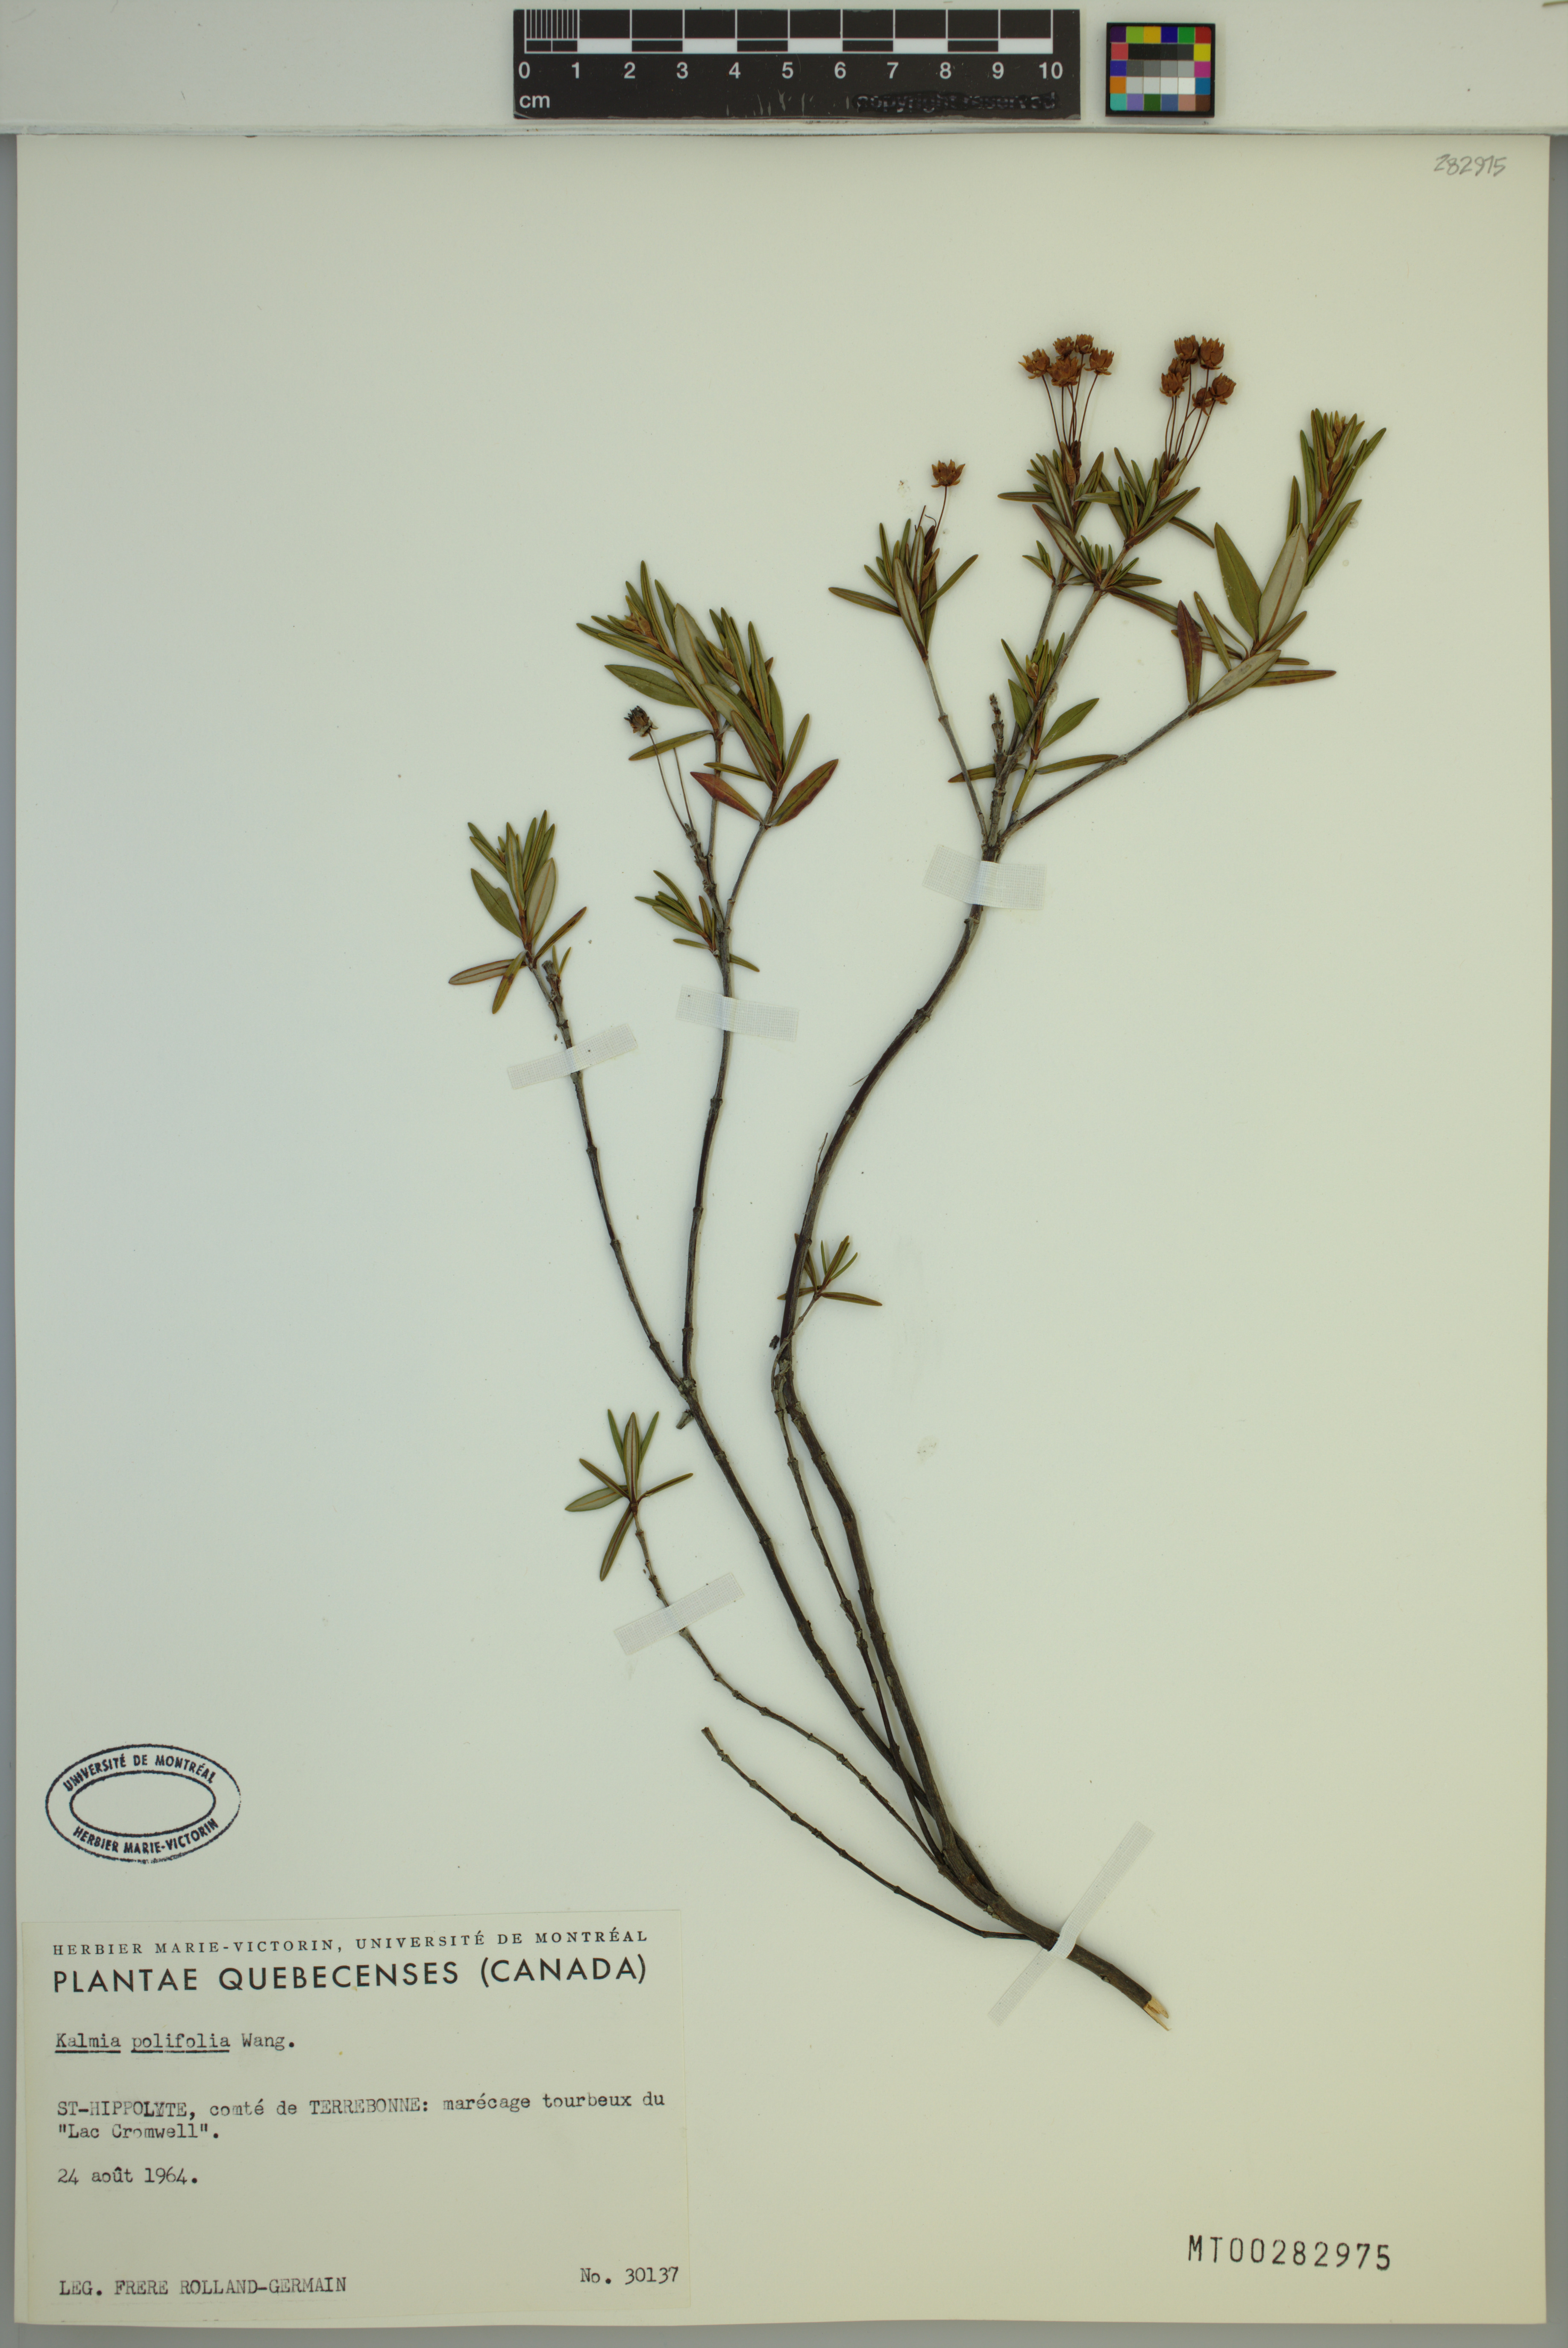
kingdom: Plantae
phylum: Tracheophyta
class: Magnoliopsida
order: Ericales
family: Ericaceae
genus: Kalmia
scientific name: Kalmia polifolia
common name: Bog-laurel
